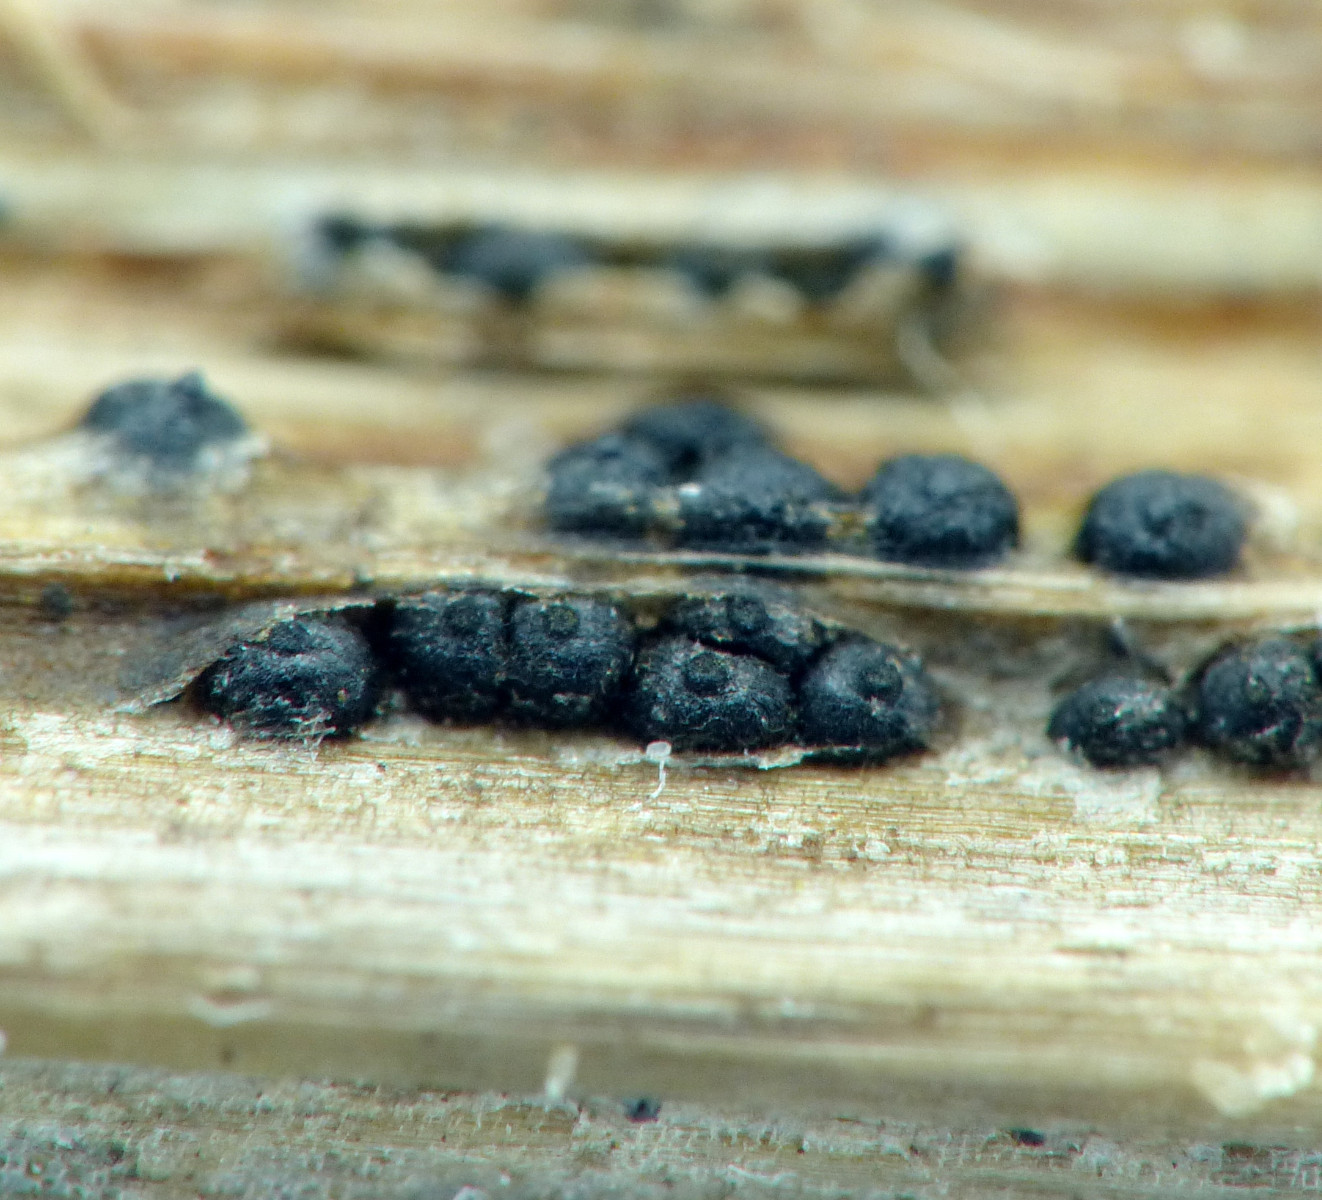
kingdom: Fungi
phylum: Ascomycota
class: Dothideomycetes
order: Pleosporales
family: Leptosphaeriaceae
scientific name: Leptosphaeriaceae
